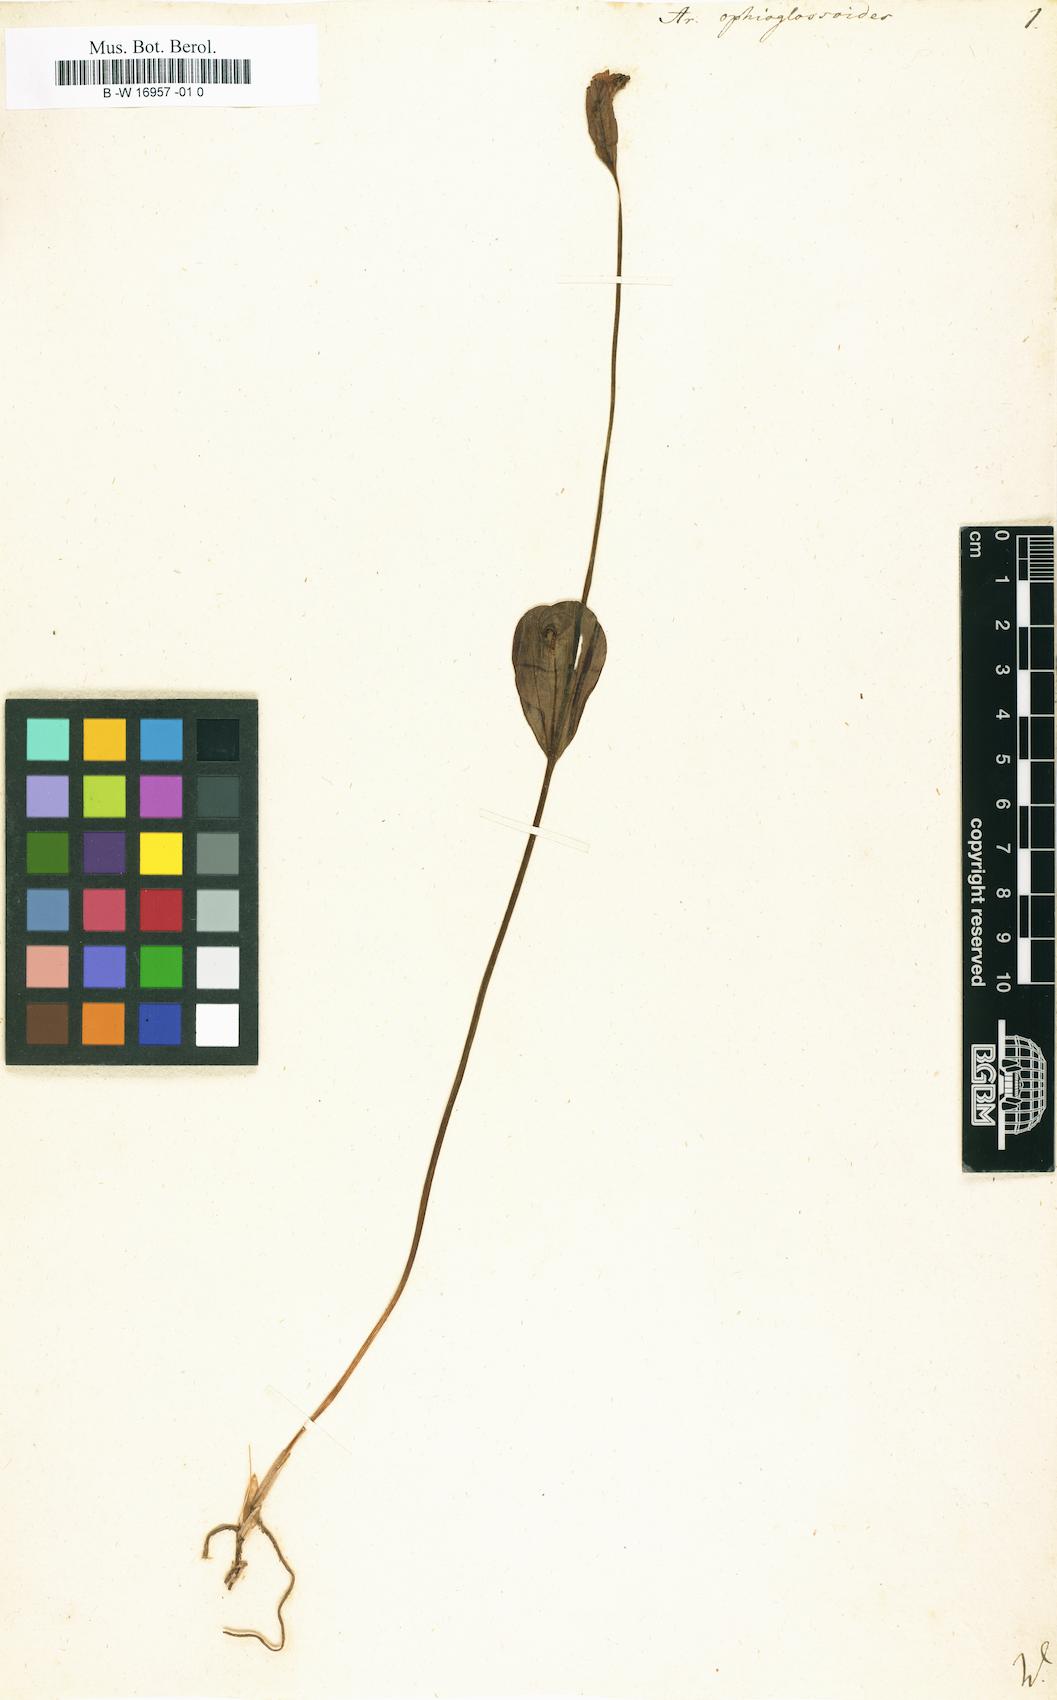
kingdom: Plantae
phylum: Tracheophyta
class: Liliopsida
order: Asparagales
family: Orchidaceae
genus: Pogonia
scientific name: Pogonia ophioglossoides
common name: Rose pogonia
